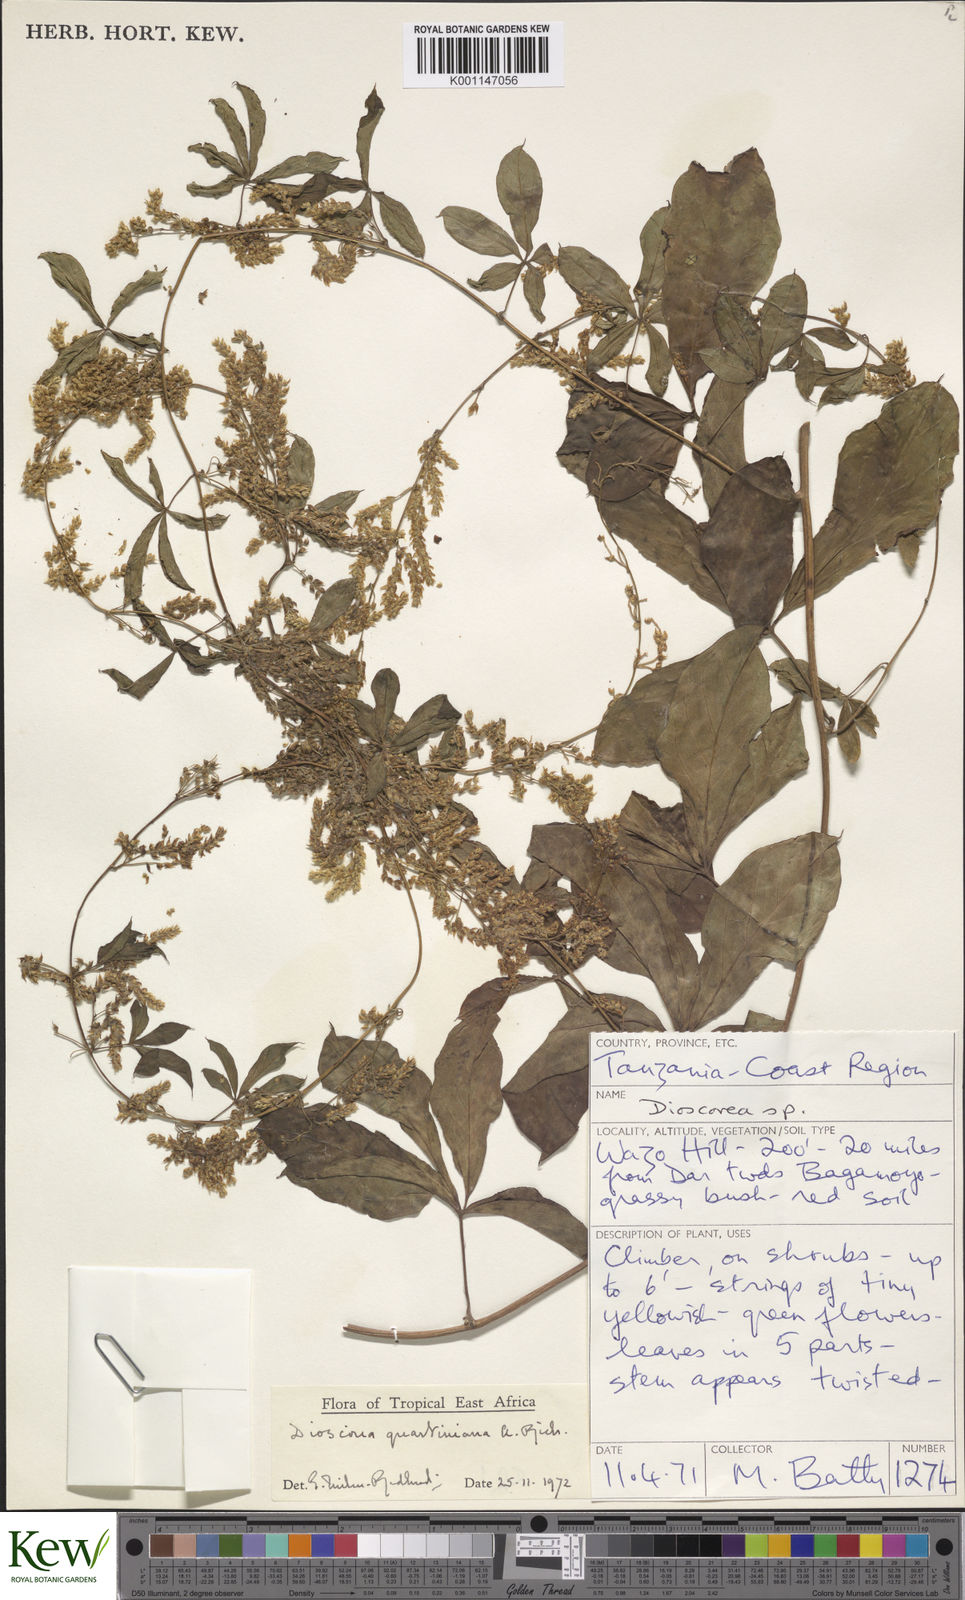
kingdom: Plantae
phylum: Tracheophyta
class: Liliopsida
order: Dioscoreales
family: Dioscoreaceae
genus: Dioscorea
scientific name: Dioscorea quartiniana
